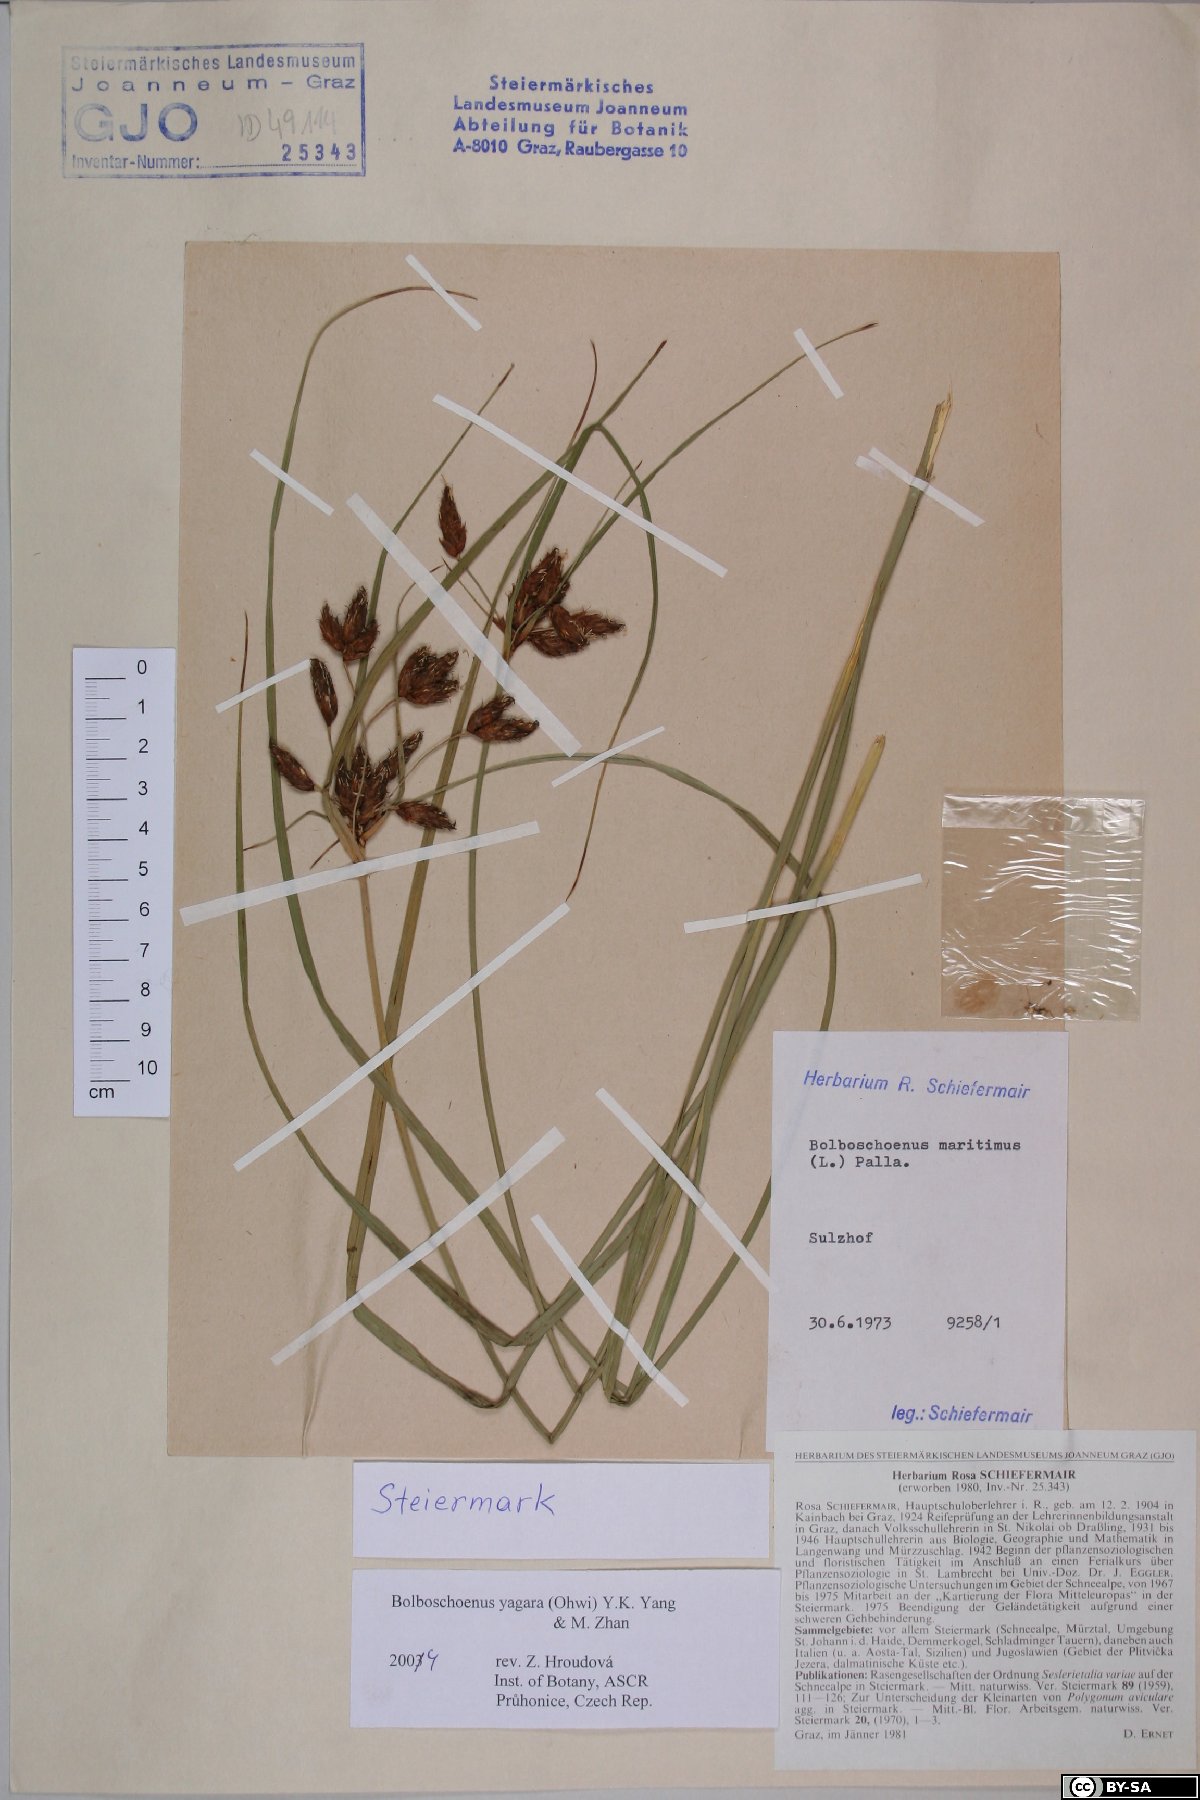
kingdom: Plantae
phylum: Tracheophyta
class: Liliopsida
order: Poales
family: Cyperaceae
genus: Bolboschoenus
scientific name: Bolboschoenus yagara
